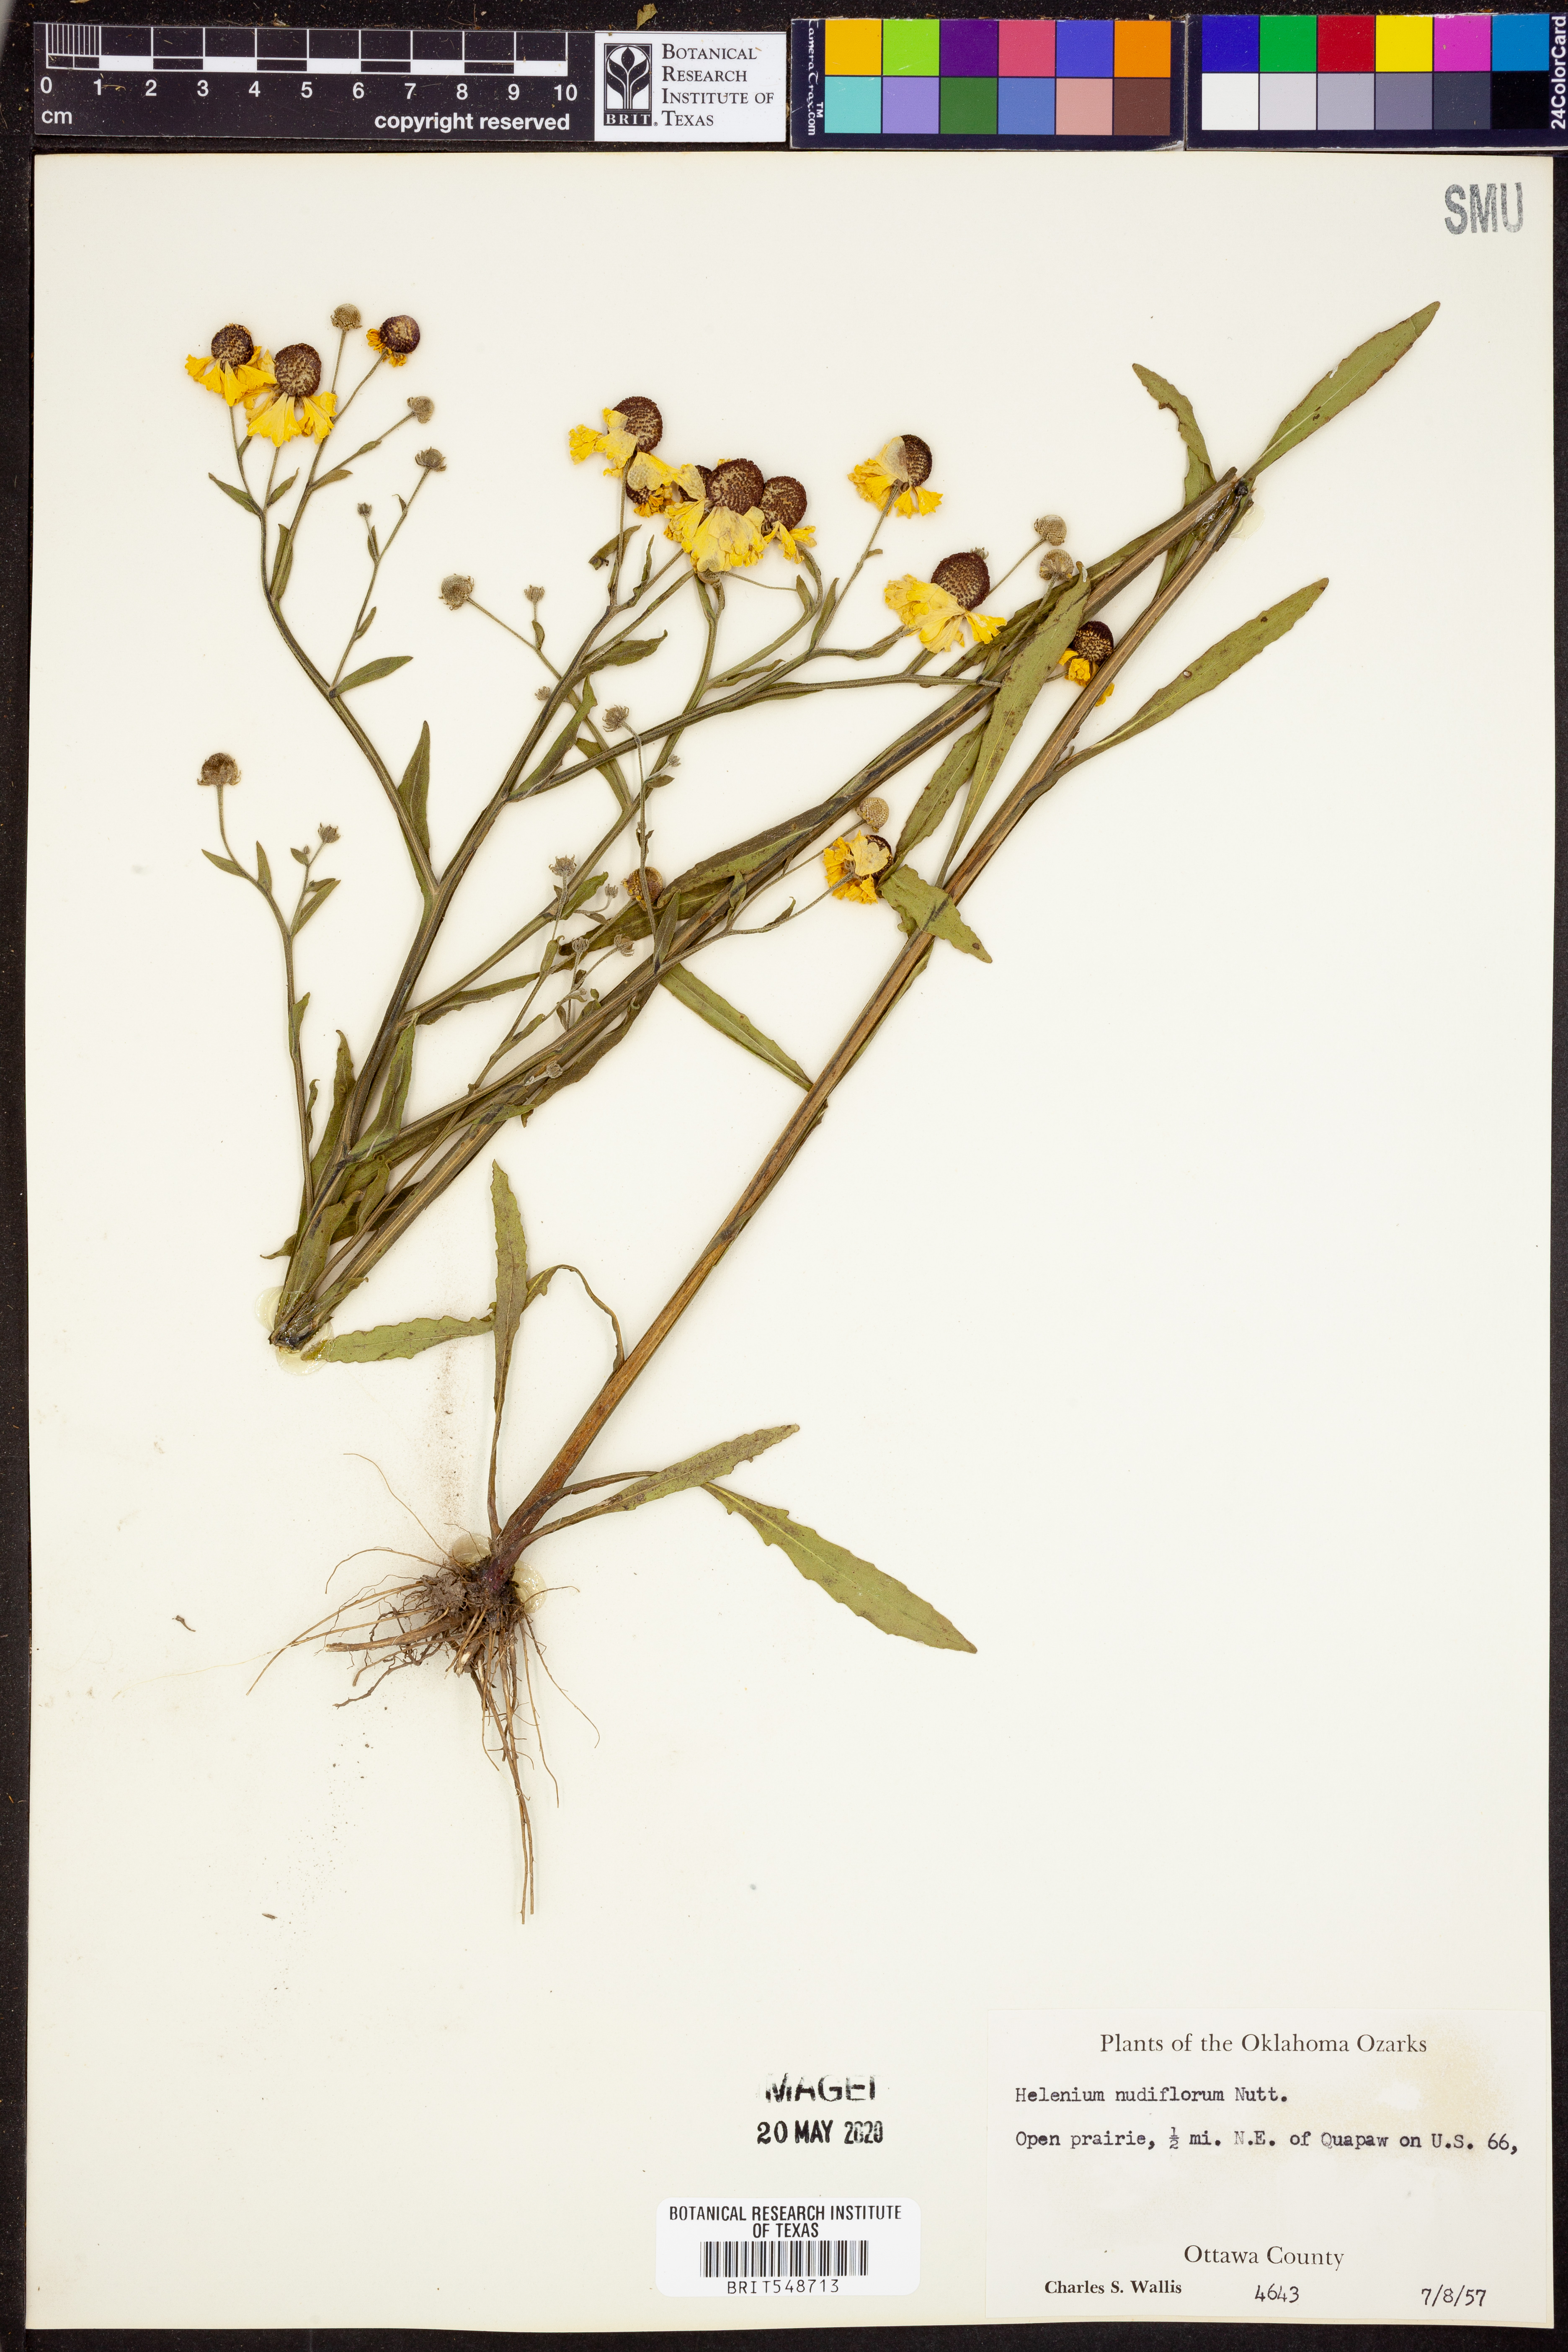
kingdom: Plantae
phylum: Tracheophyta
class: Magnoliopsida
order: Asterales
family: Asteraceae
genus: Helenium
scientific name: Helenium flexuosum
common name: Naked-flowered sneezeweed
